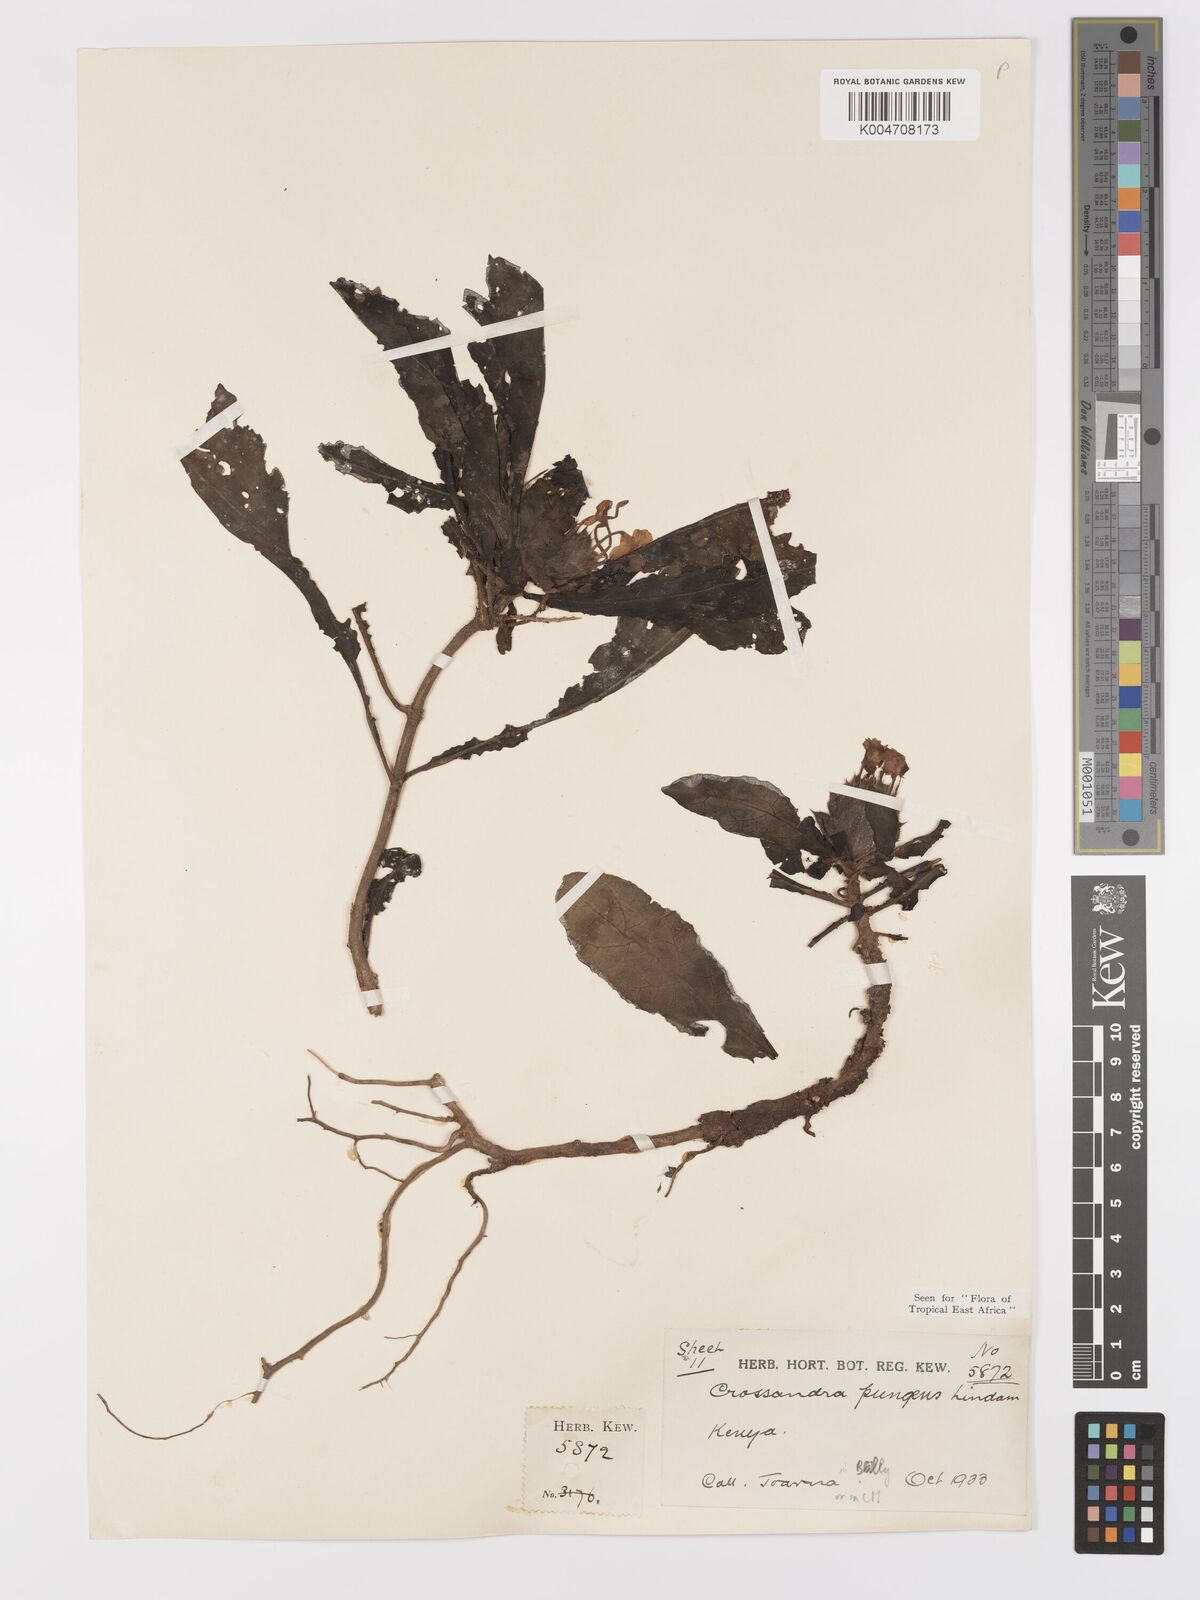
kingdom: Plantae
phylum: Tracheophyta
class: Magnoliopsida
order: Lamiales
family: Acanthaceae
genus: Crossandra
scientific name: Crossandra pungens
